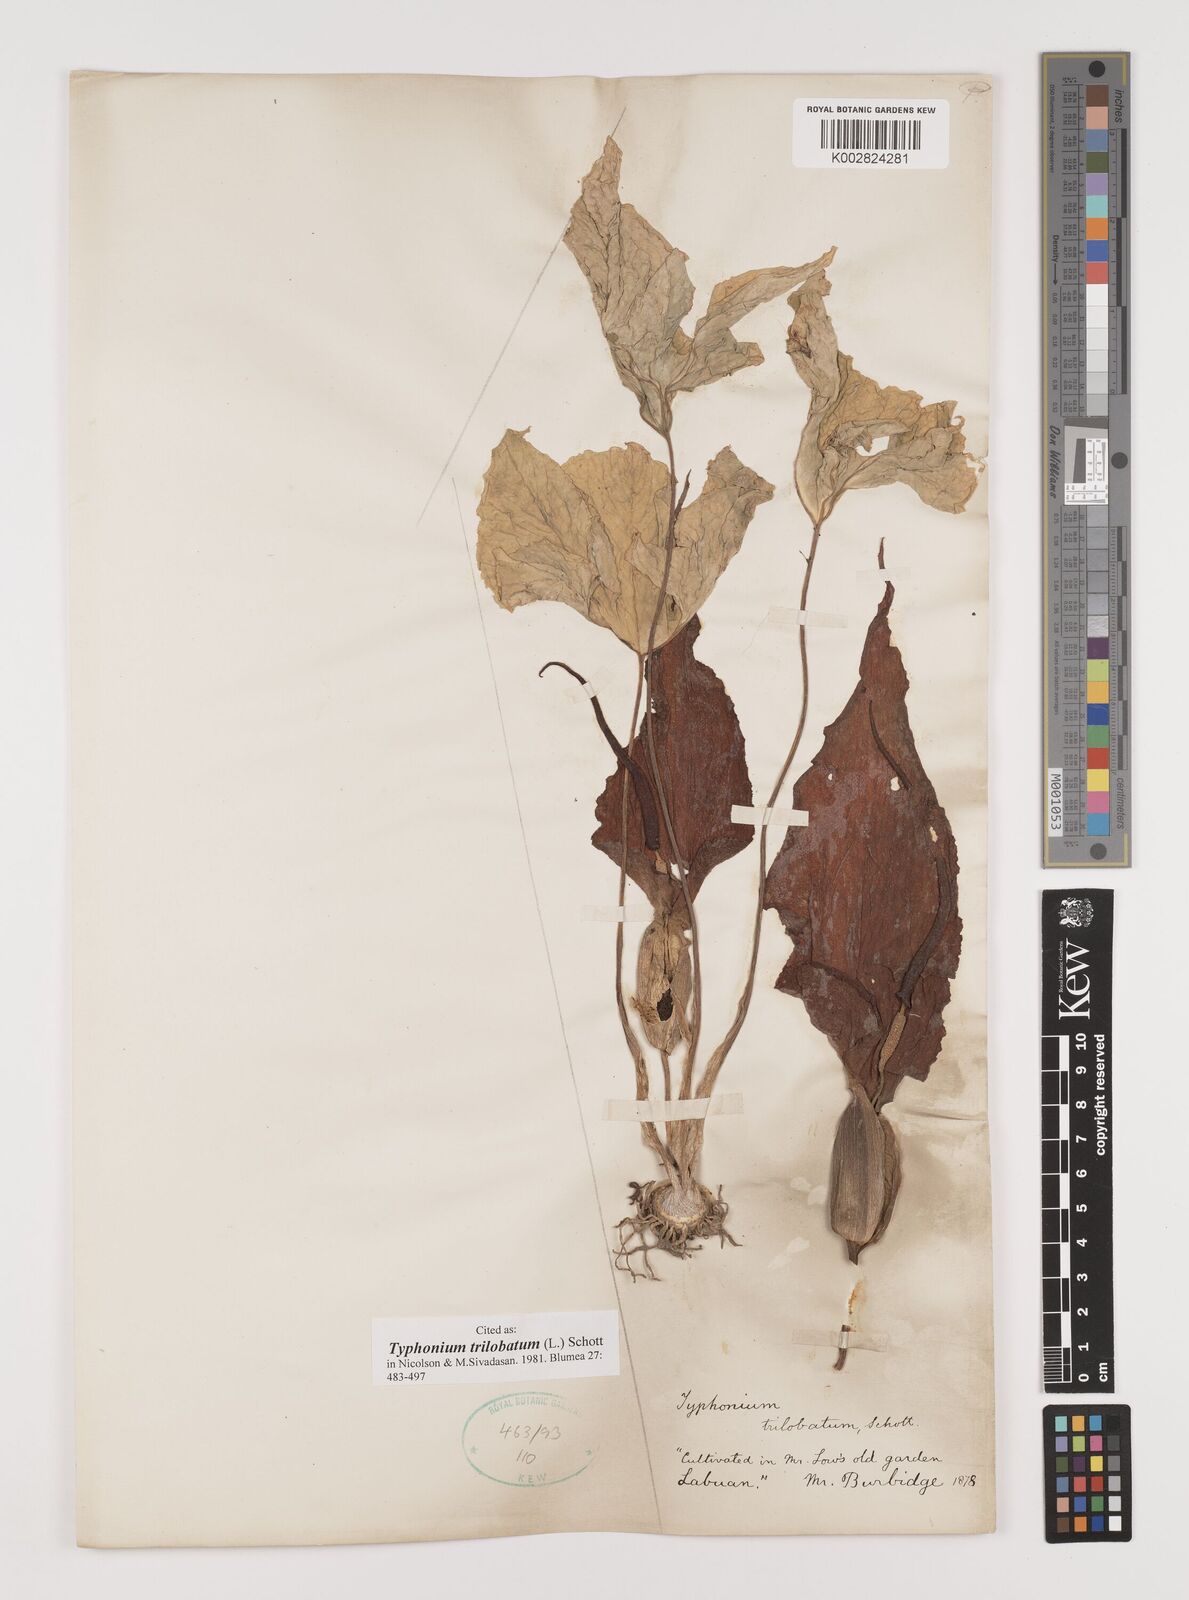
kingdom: Plantae
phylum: Tracheophyta
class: Liliopsida
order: Alismatales
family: Araceae
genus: Typhonium
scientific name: Typhonium trilobatum
